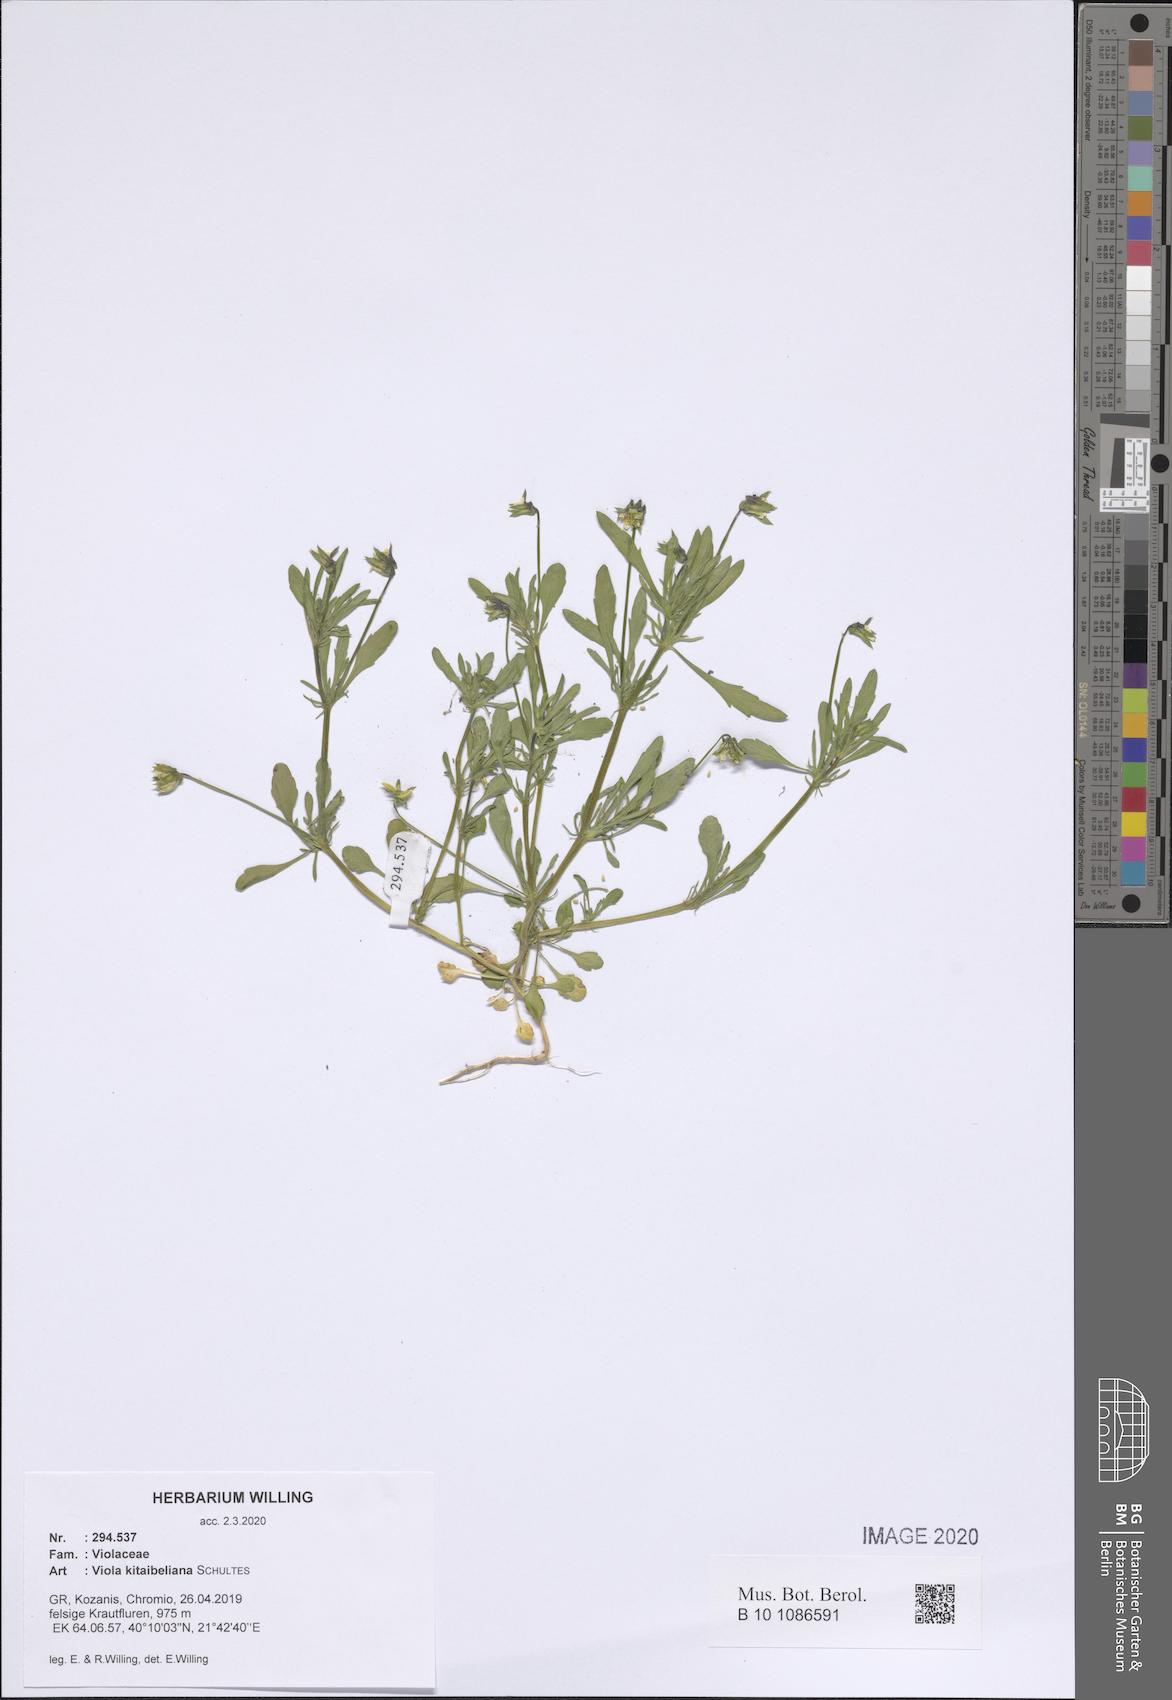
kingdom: Plantae
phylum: Tracheophyta
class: Magnoliopsida
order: Malpighiales
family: Violaceae
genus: Viola
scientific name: Viola kitaibeliana
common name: Dwarf pansy
